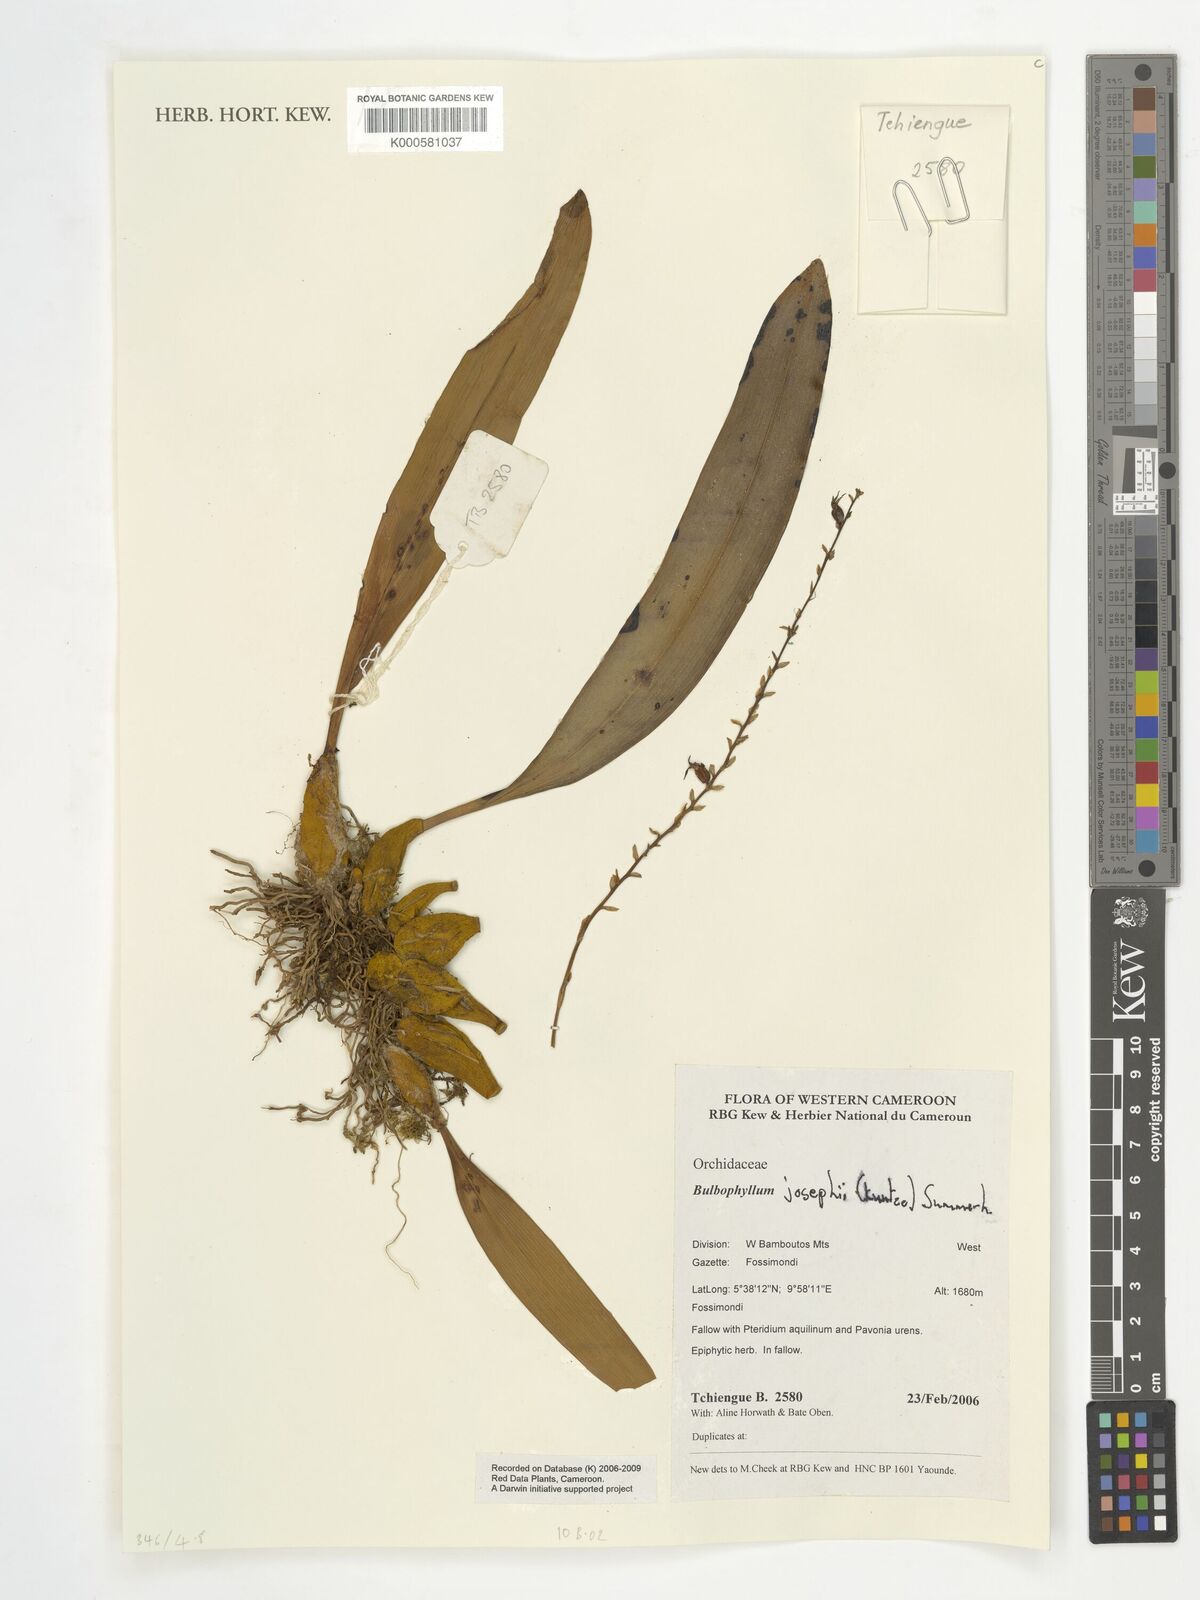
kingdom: Plantae
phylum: Tracheophyta
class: Liliopsida
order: Asparagales
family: Orchidaceae
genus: Bulbophyllum
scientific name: Bulbophyllum josephi
